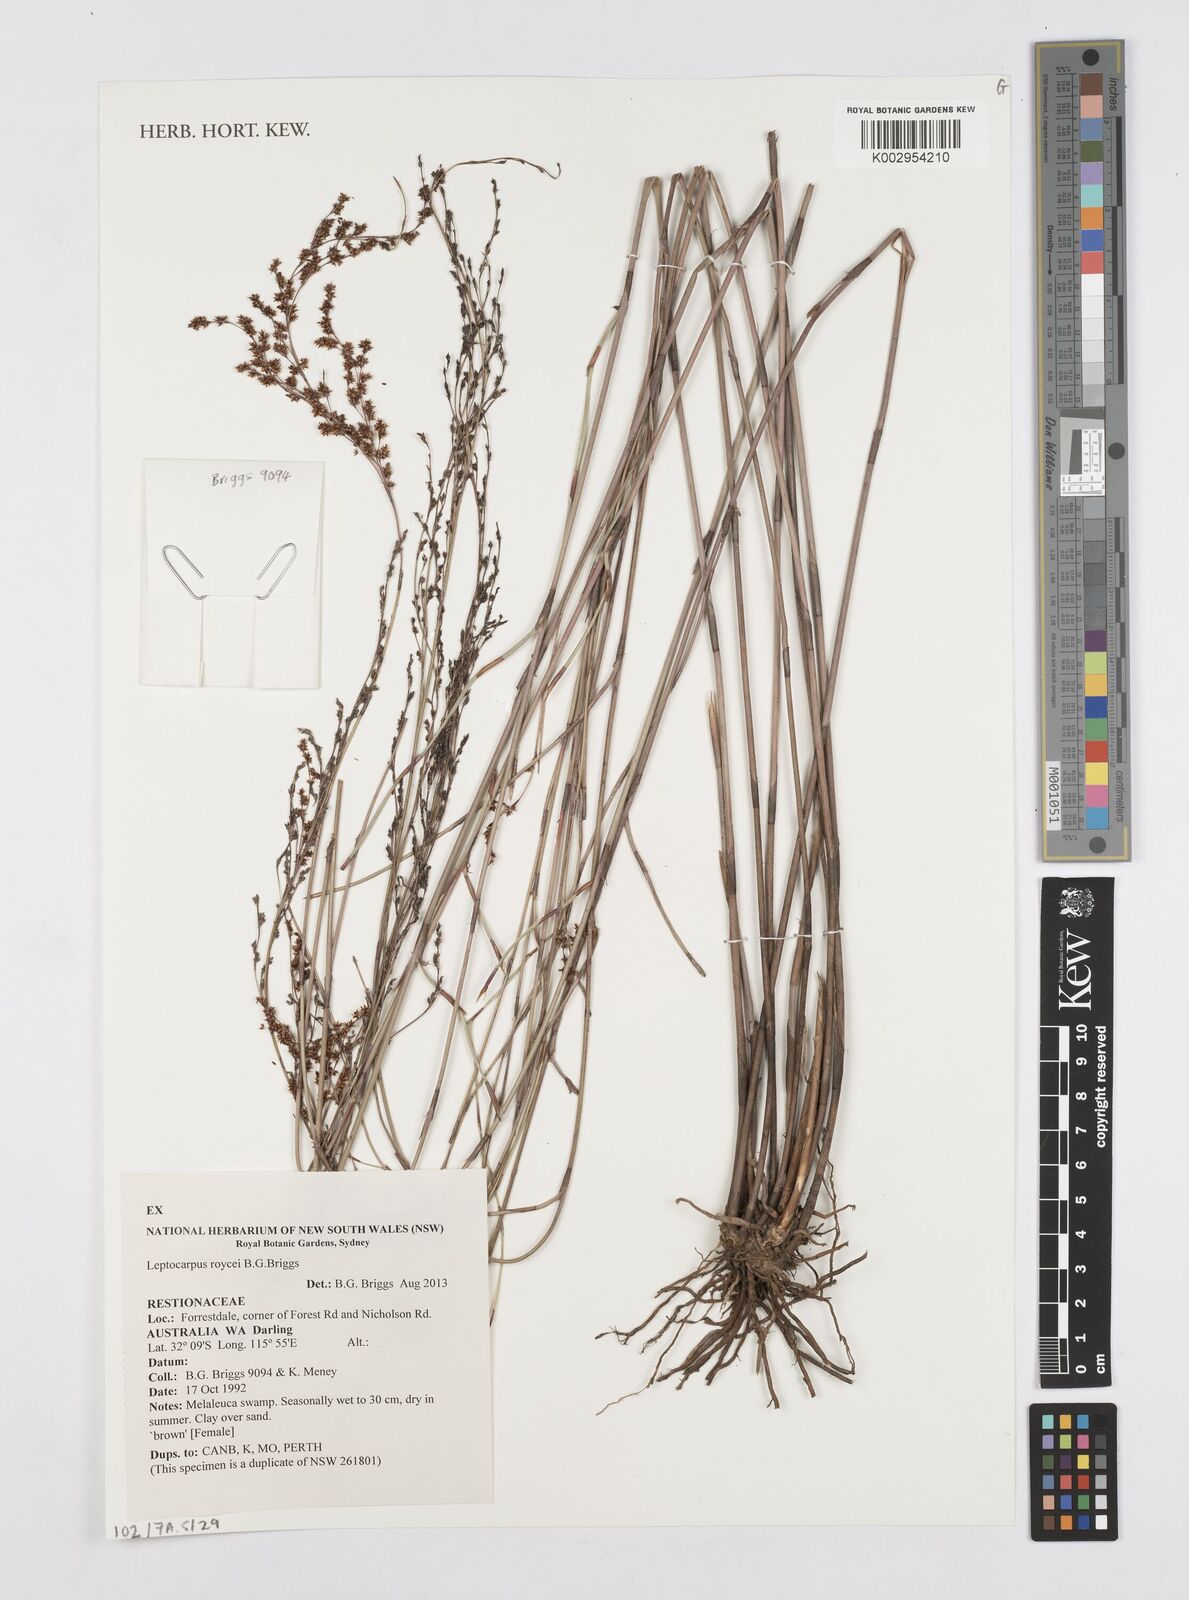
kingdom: Plantae
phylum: Tracheophyta
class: Liliopsida
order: Poales
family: Restionaceae
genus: Leptocarpus
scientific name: Leptocarpus roycei
